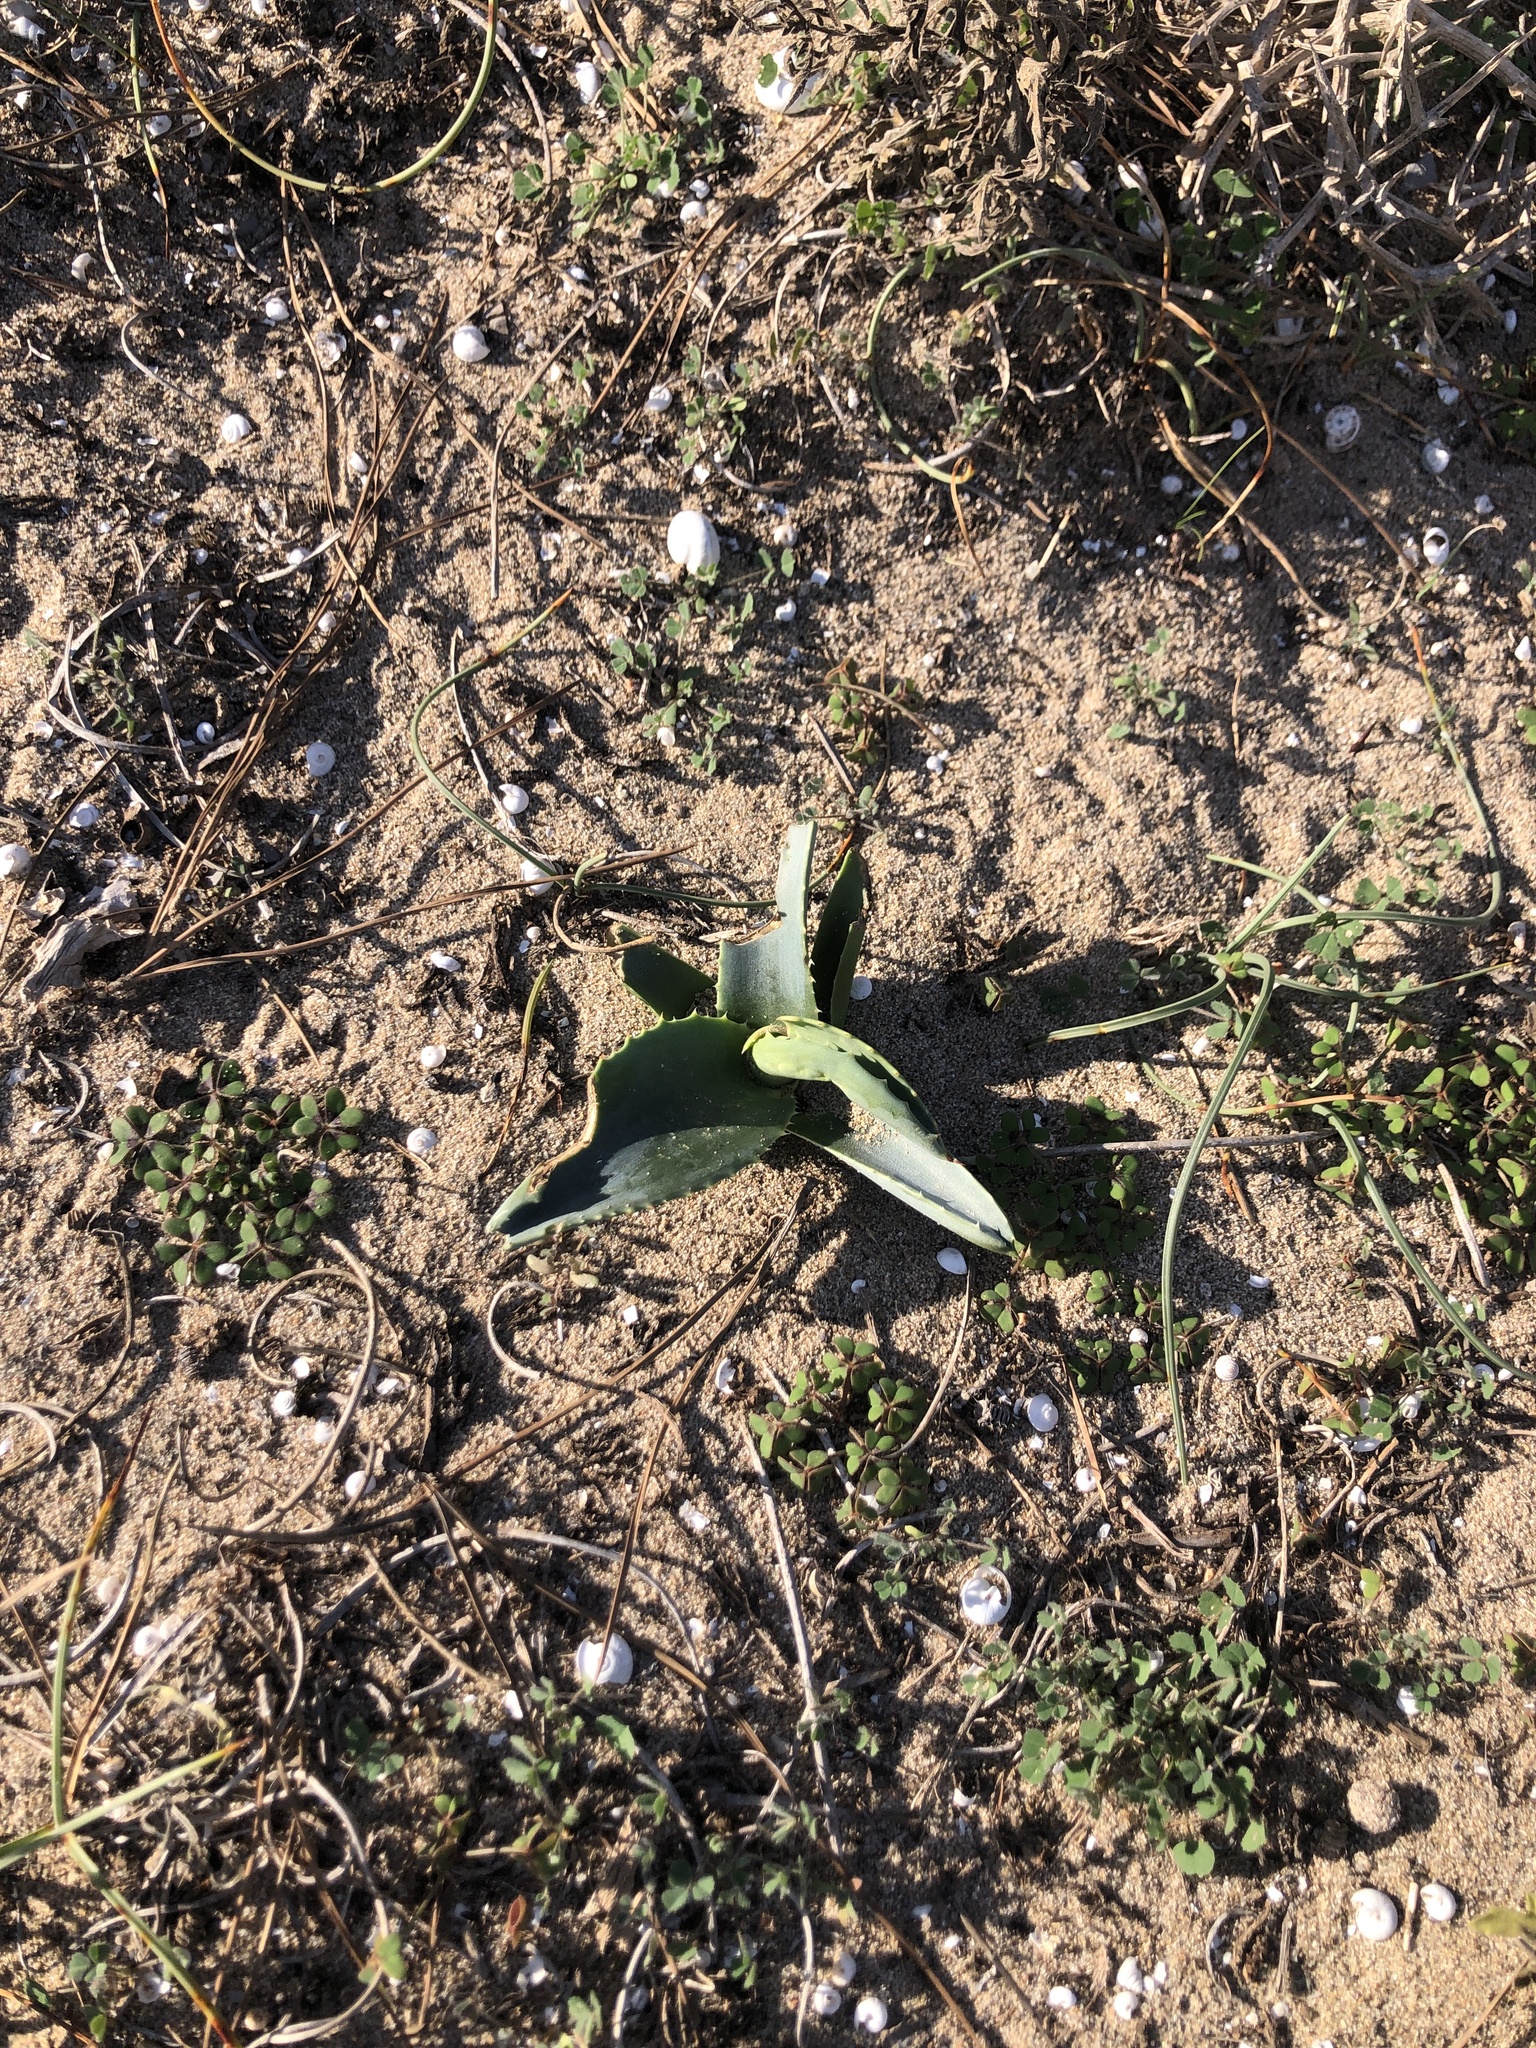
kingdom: Plantae
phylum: Tracheophyta
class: Liliopsida
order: Asparagales
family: Asparagaceae
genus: Agave
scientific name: Agave americana
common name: Centuryplant
